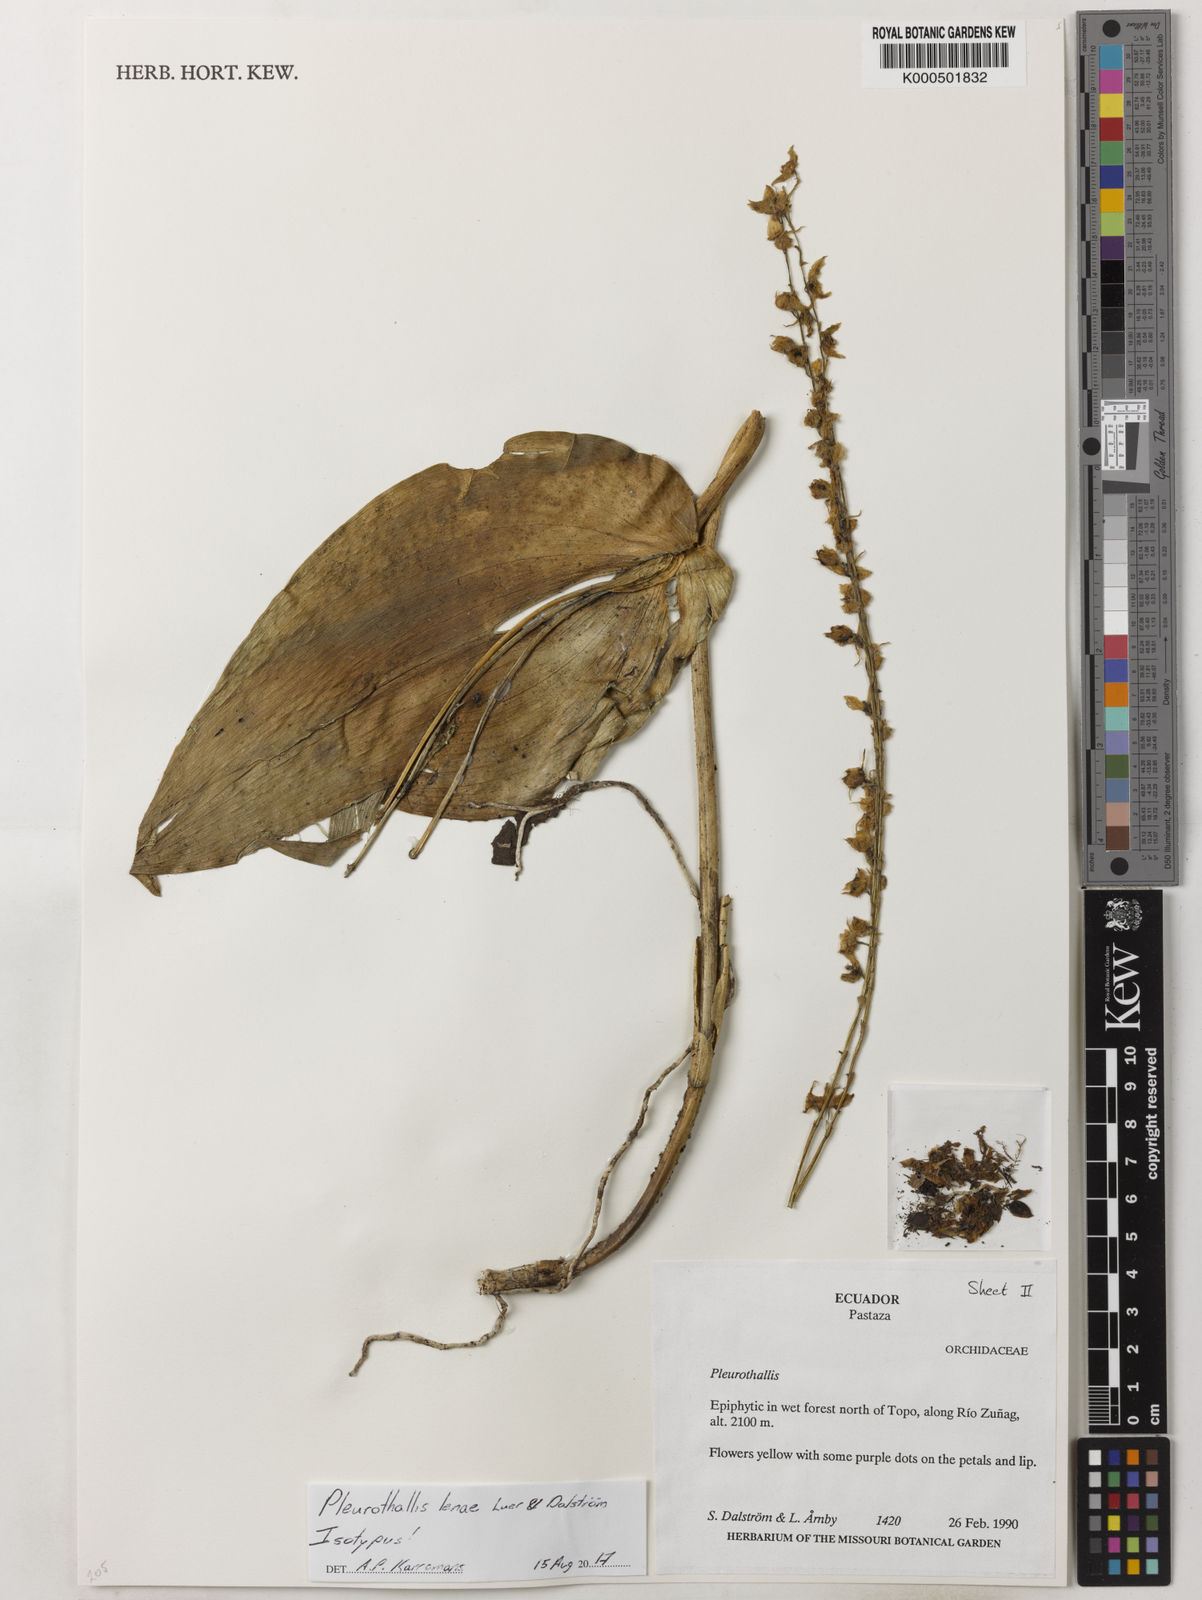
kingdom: Plantae
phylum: Tracheophyta
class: Liliopsida
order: Asparagales
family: Orchidaceae
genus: Pleurothallis
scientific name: Pleurothallis
